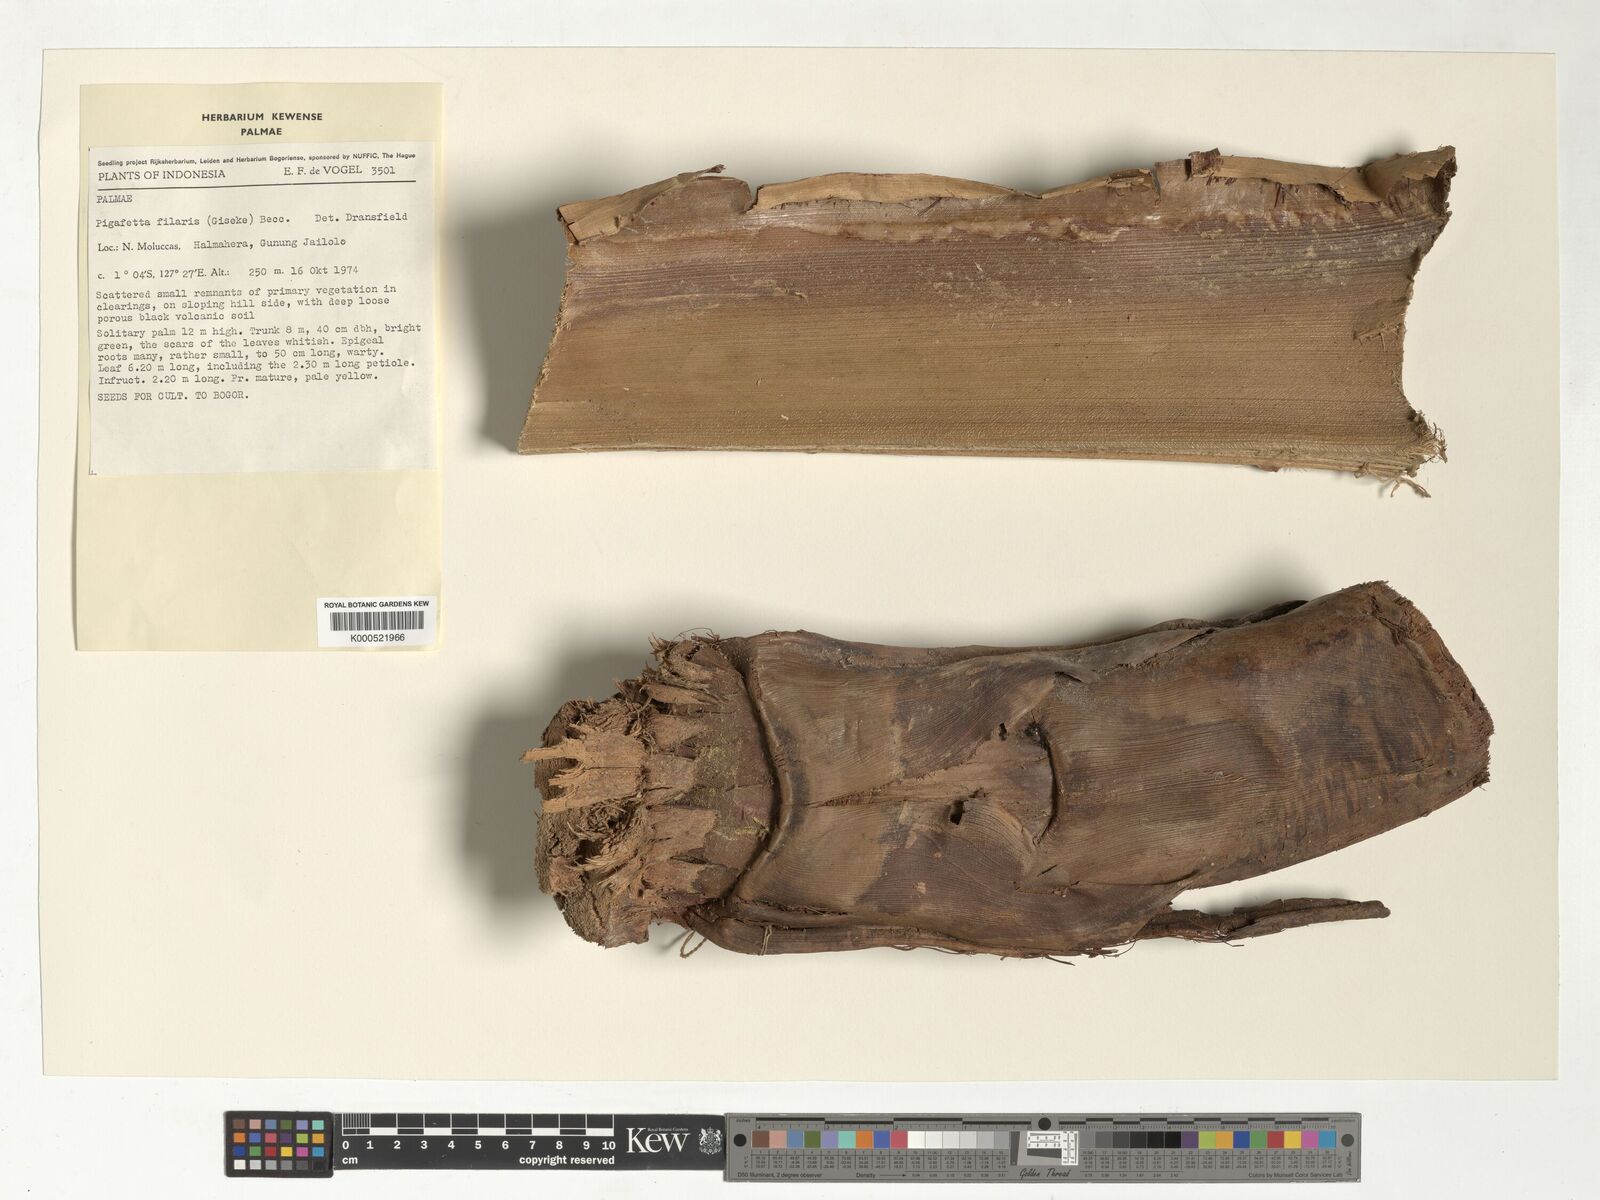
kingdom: Plantae
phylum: Tracheophyta
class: Liliopsida
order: Arecales
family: Arecaceae
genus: Pigafetta
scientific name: Pigafetta filaris
